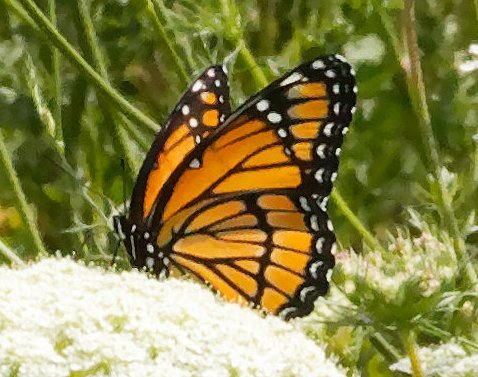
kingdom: Animalia
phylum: Arthropoda
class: Insecta
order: Lepidoptera
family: Nymphalidae
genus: Limenitis
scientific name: Limenitis archippus
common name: Viceroy
